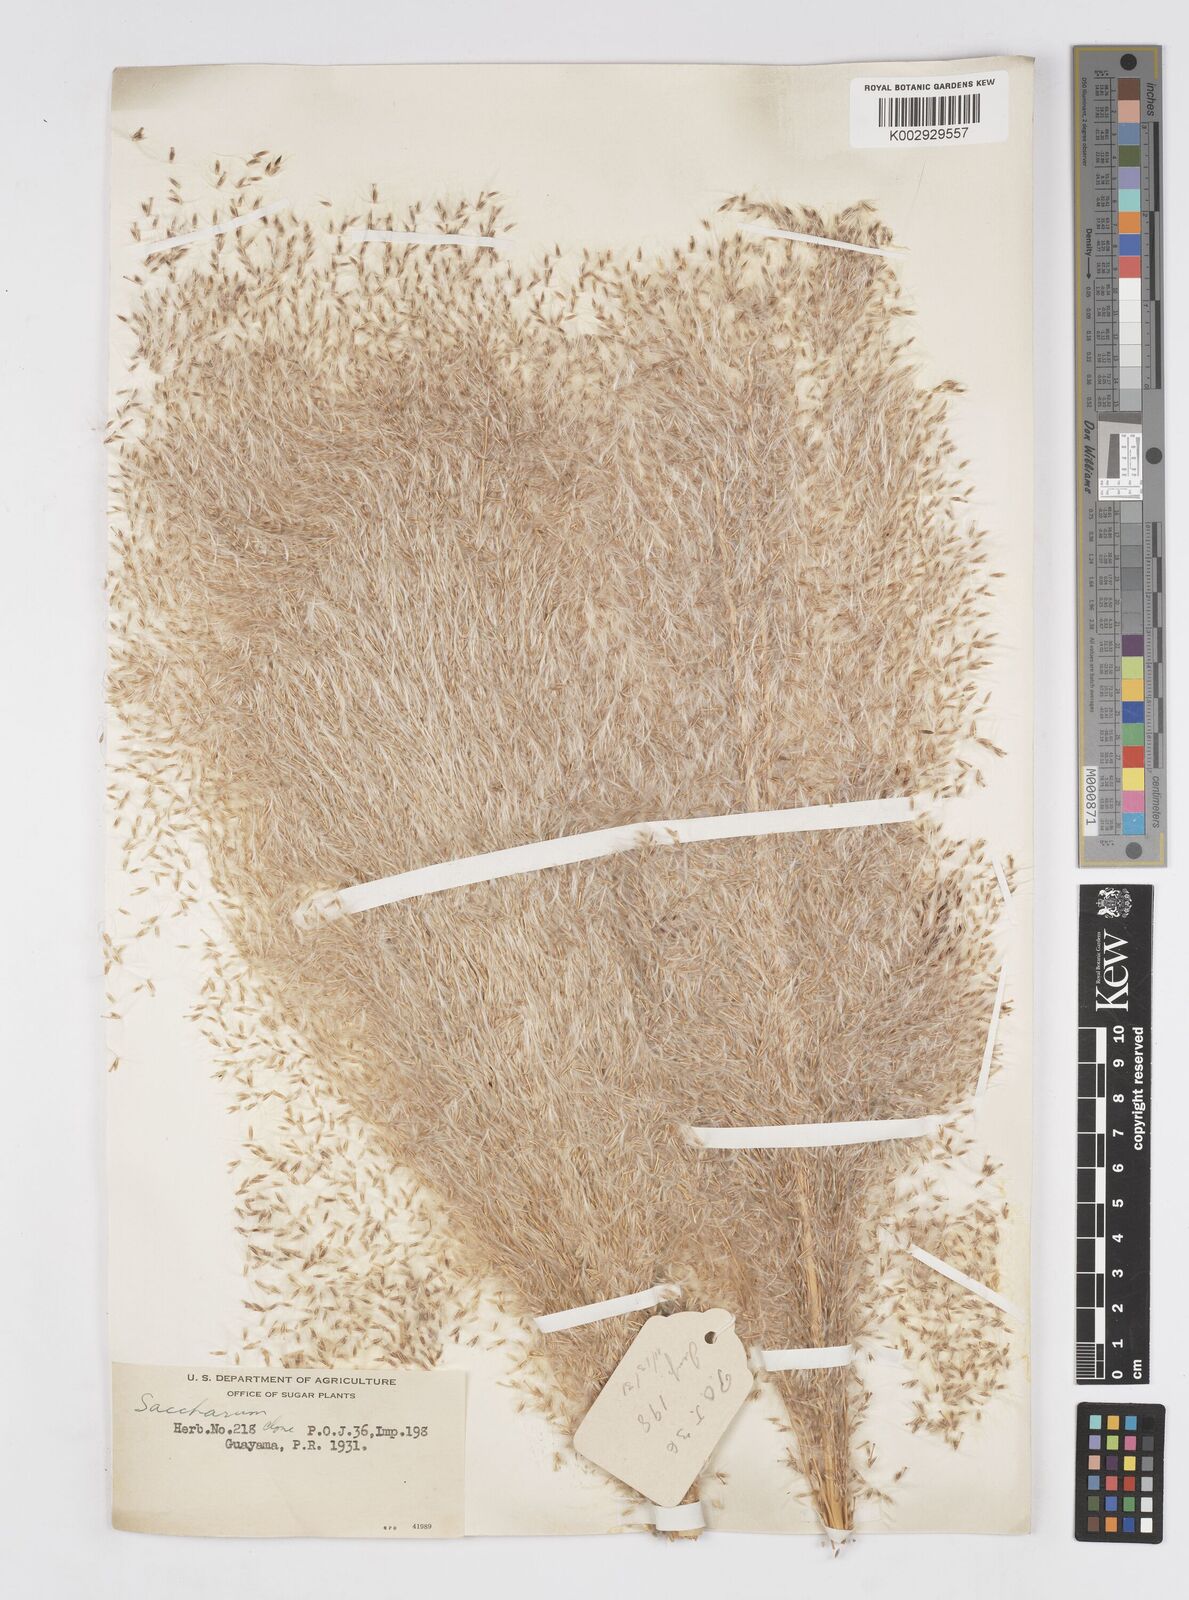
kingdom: Plantae
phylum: Tracheophyta
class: Liliopsida
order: Poales
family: Poaceae
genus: Saccharum
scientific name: Saccharum officinarum
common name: Sugarcane
